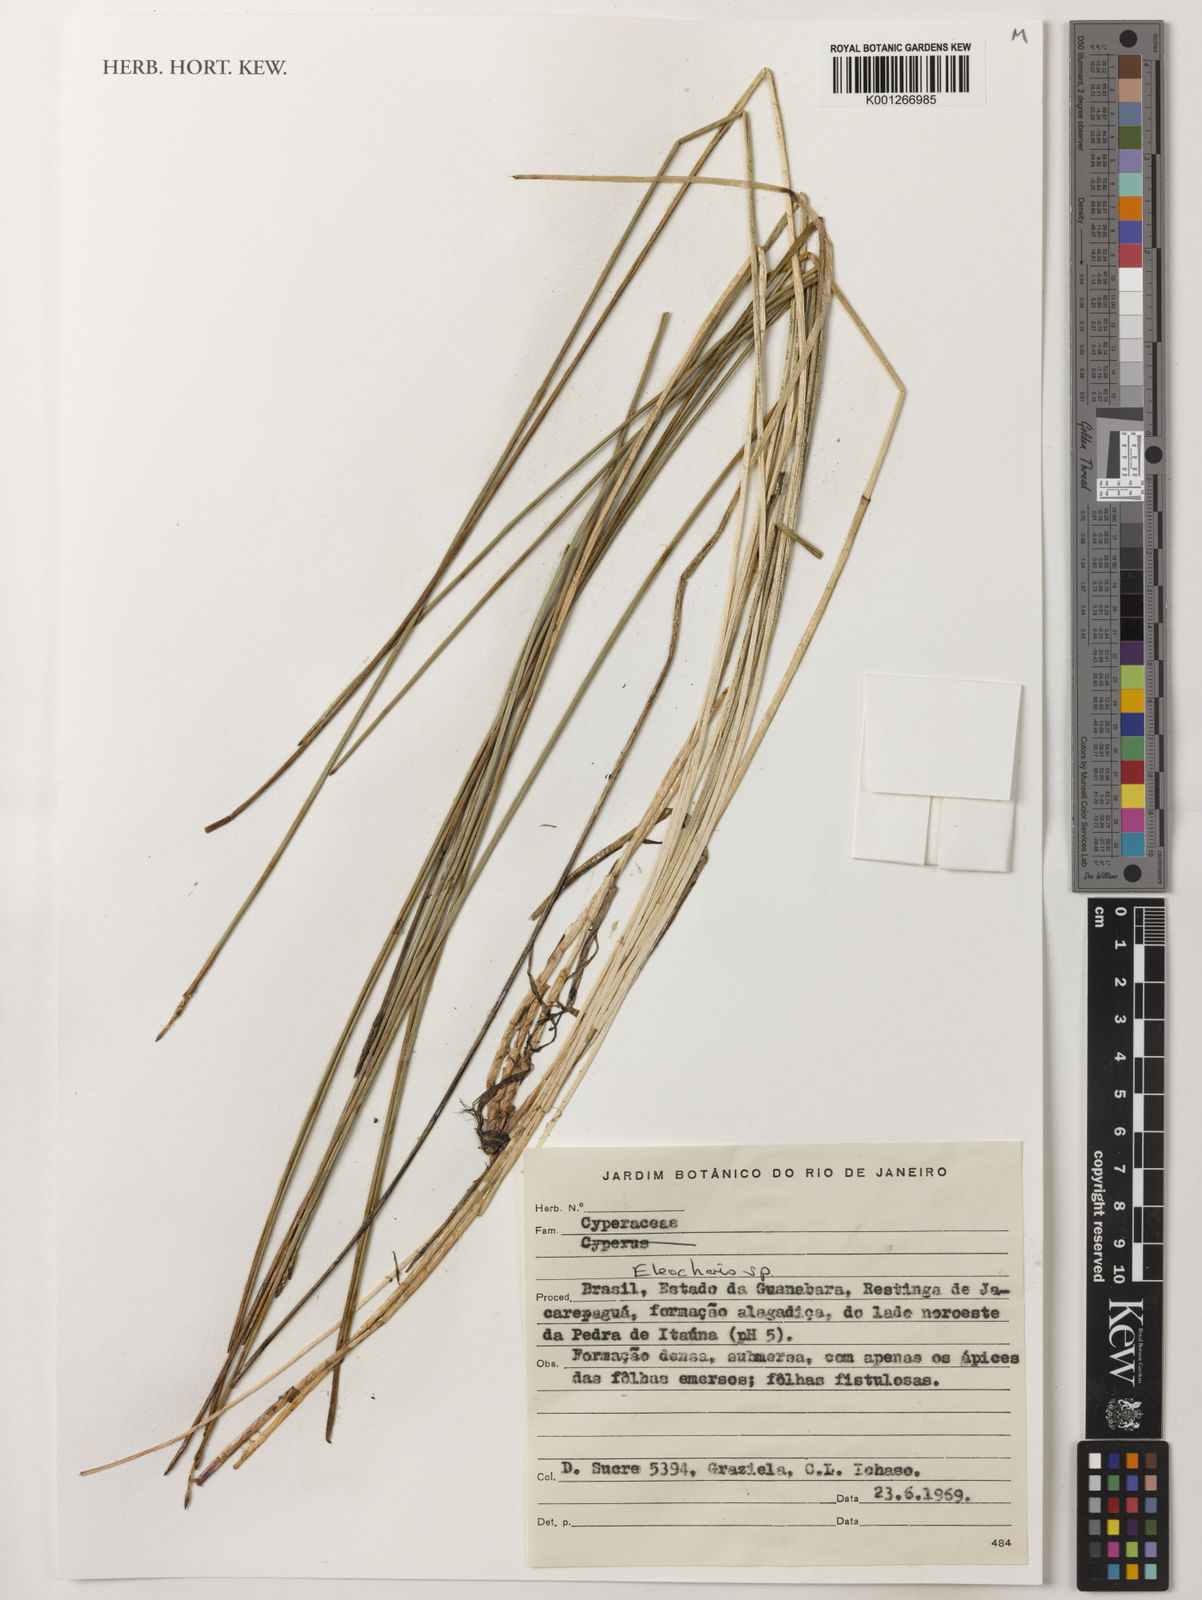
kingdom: Plantae
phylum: Tracheophyta
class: Liliopsida
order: Poales
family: Cyperaceae
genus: Eleocharis
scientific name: Eleocharis
